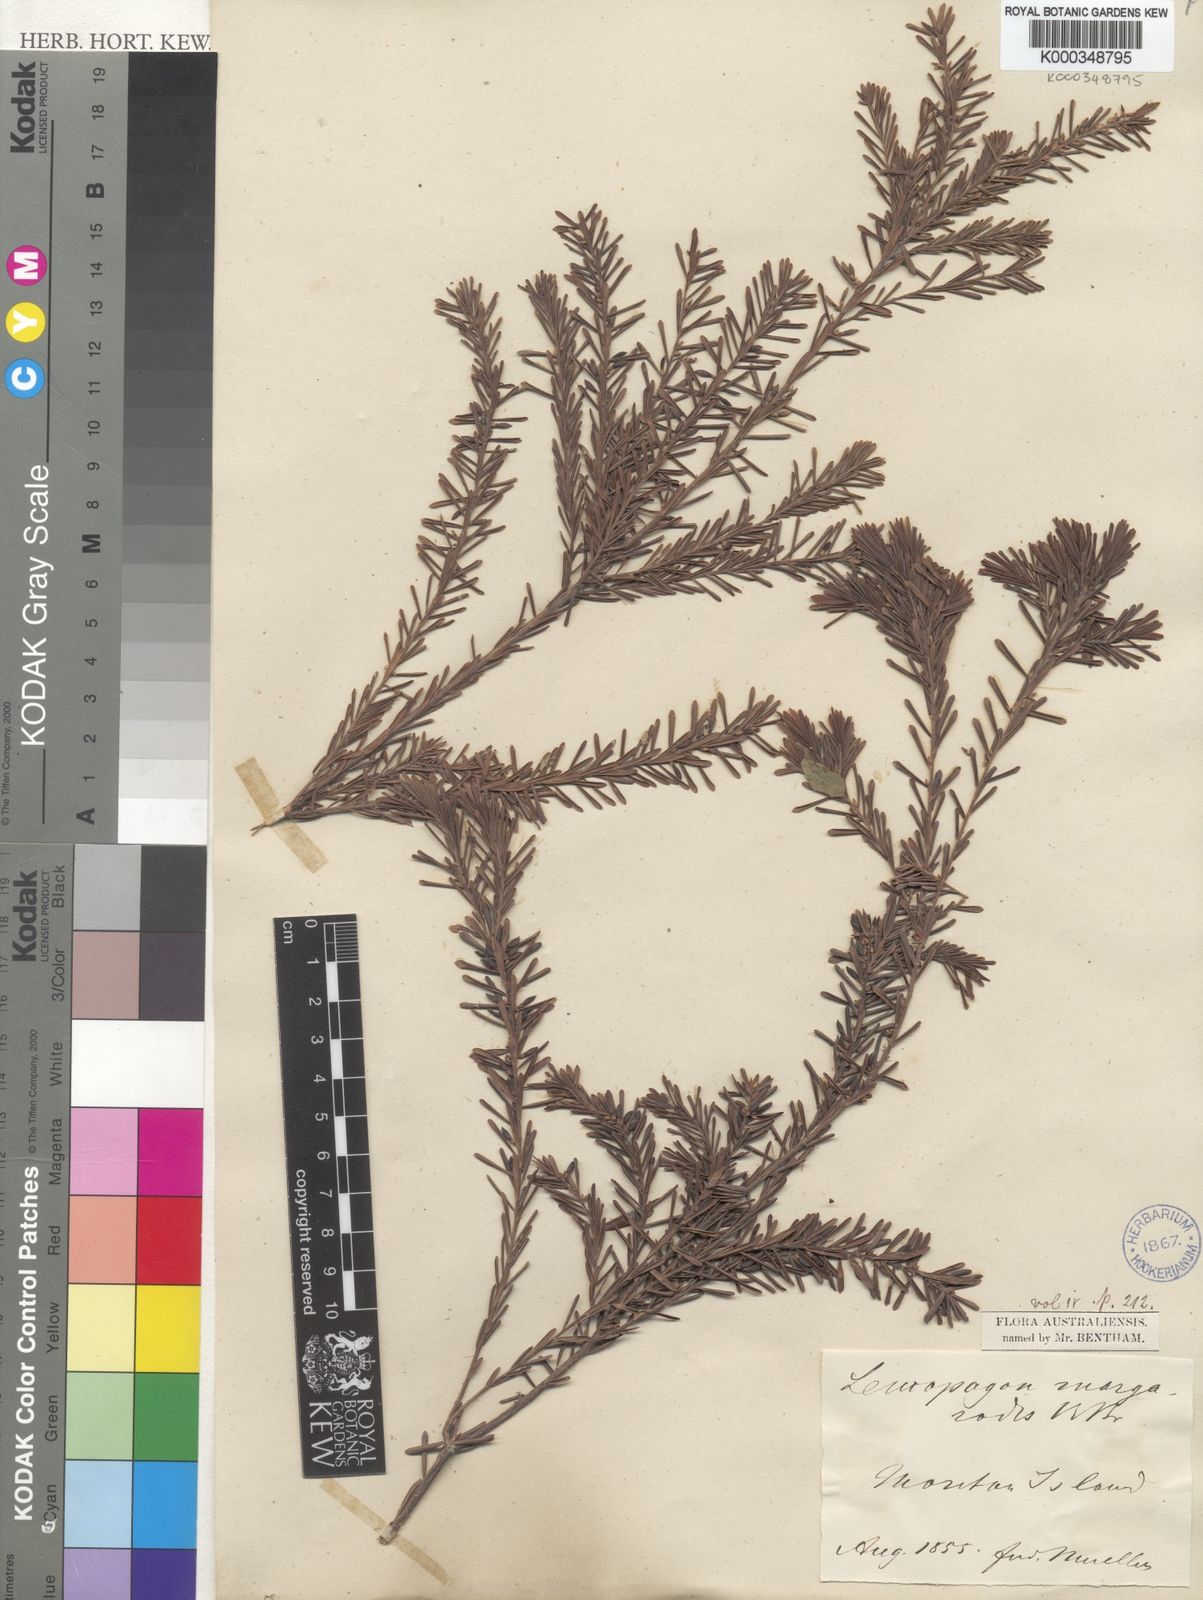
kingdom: Plantae
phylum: Tracheophyta
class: Magnoliopsida
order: Ericales
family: Ericaceae
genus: Styphelia
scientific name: Styphelia margarodes
